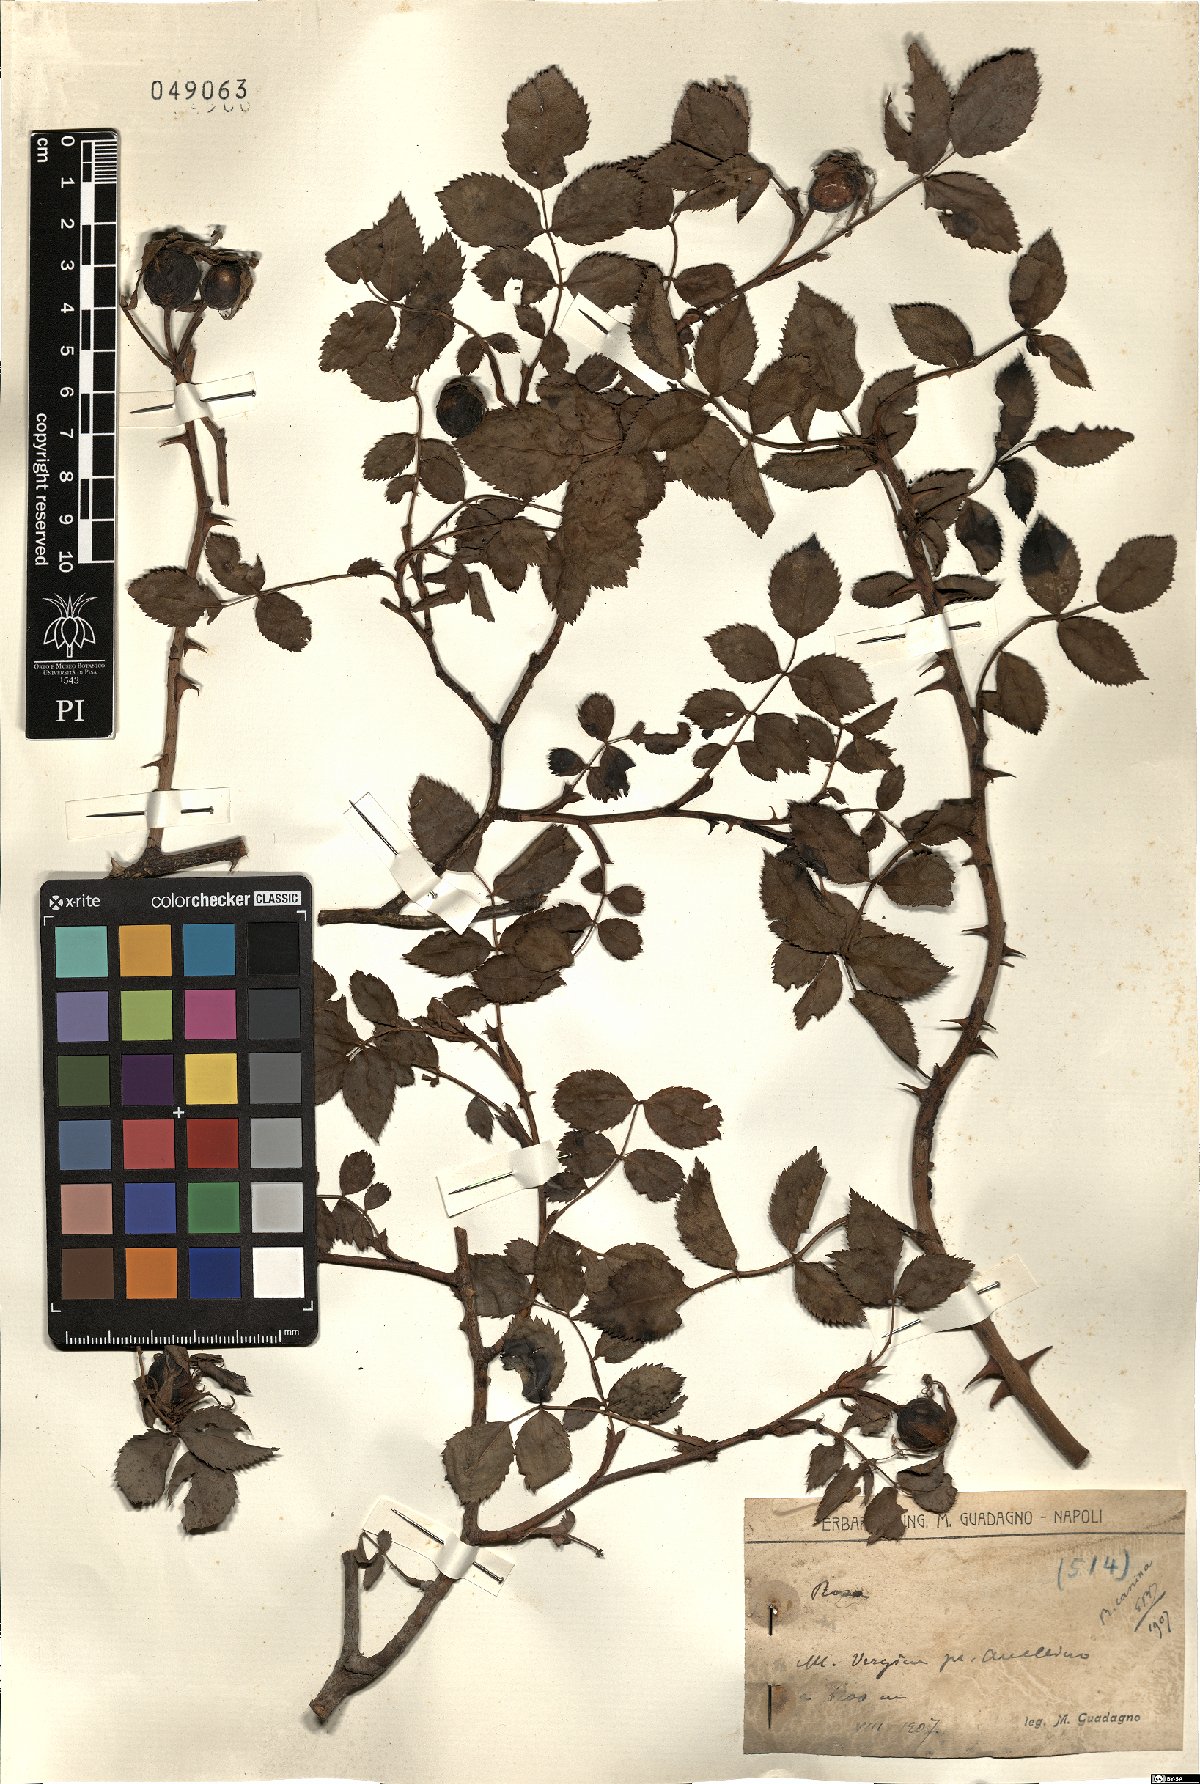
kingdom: Plantae
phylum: Tracheophyta
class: Magnoliopsida
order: Rosales
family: Rosaceae
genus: Rosa
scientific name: Rosa canina
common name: Dog rose
